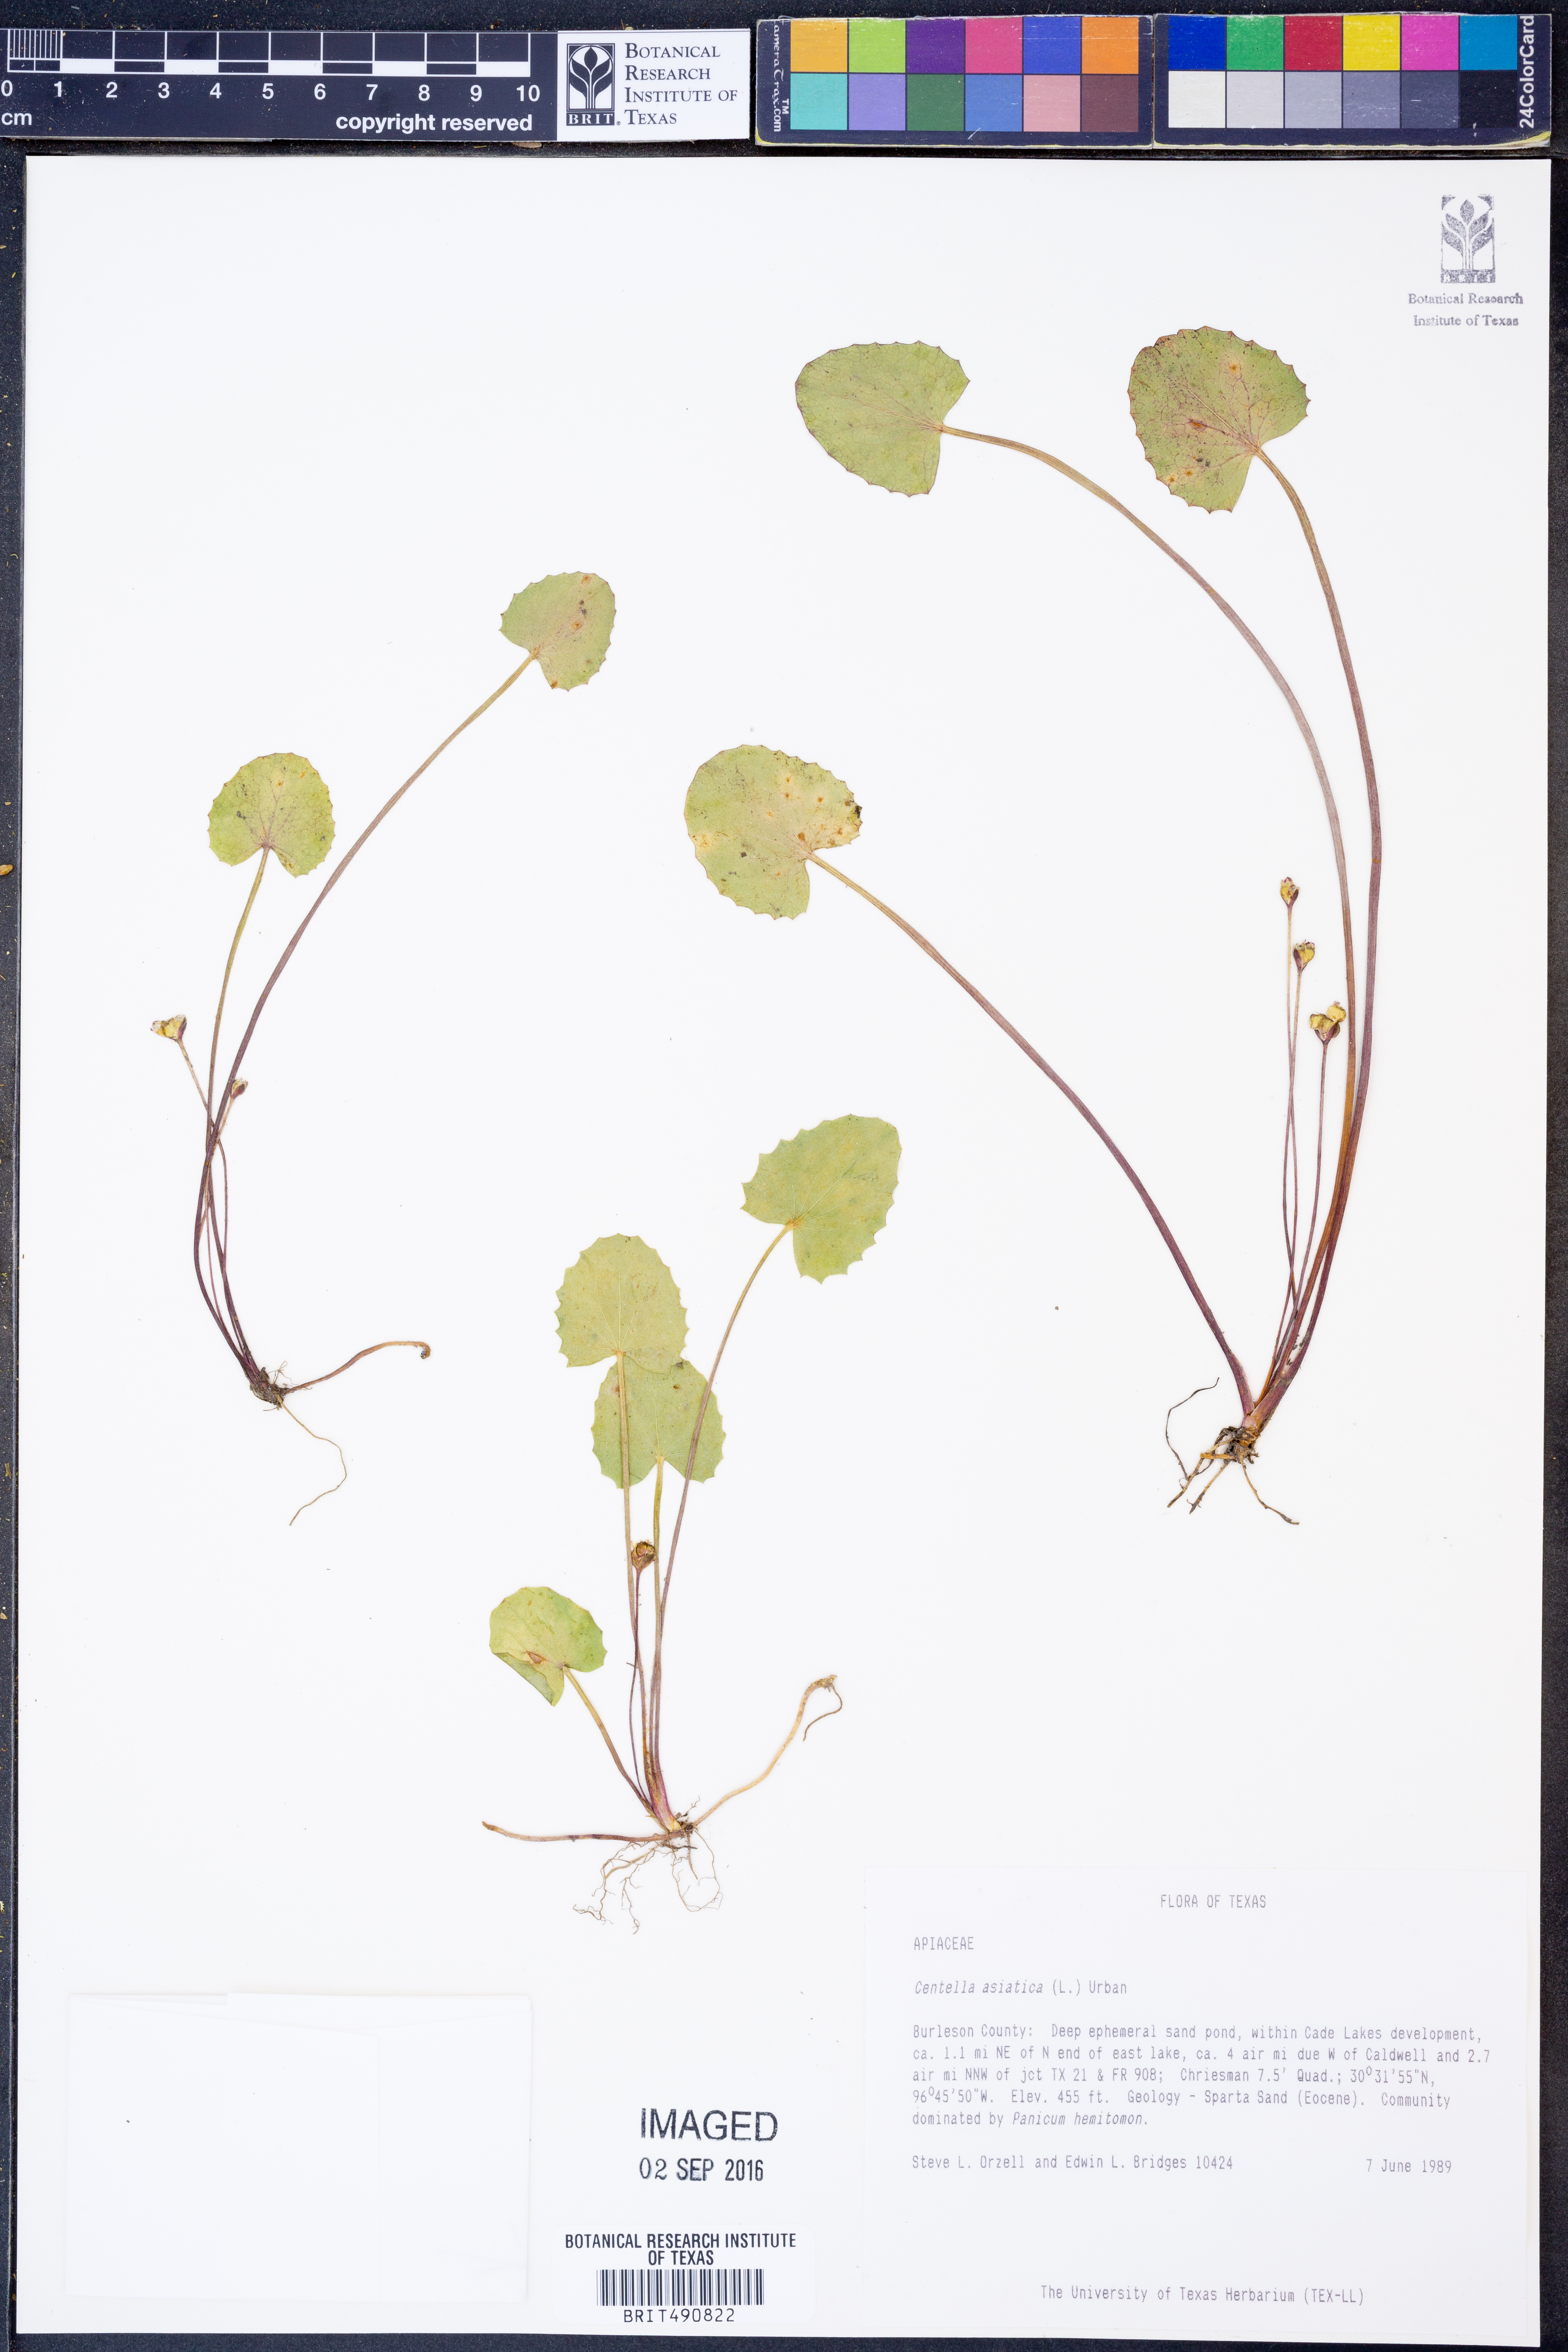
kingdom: Plantae
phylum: Tracheophyta
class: Magnoliopsida
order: Apiales
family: Apiaceae
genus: Centella
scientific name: Centella asiatica
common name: Spadeleaf
